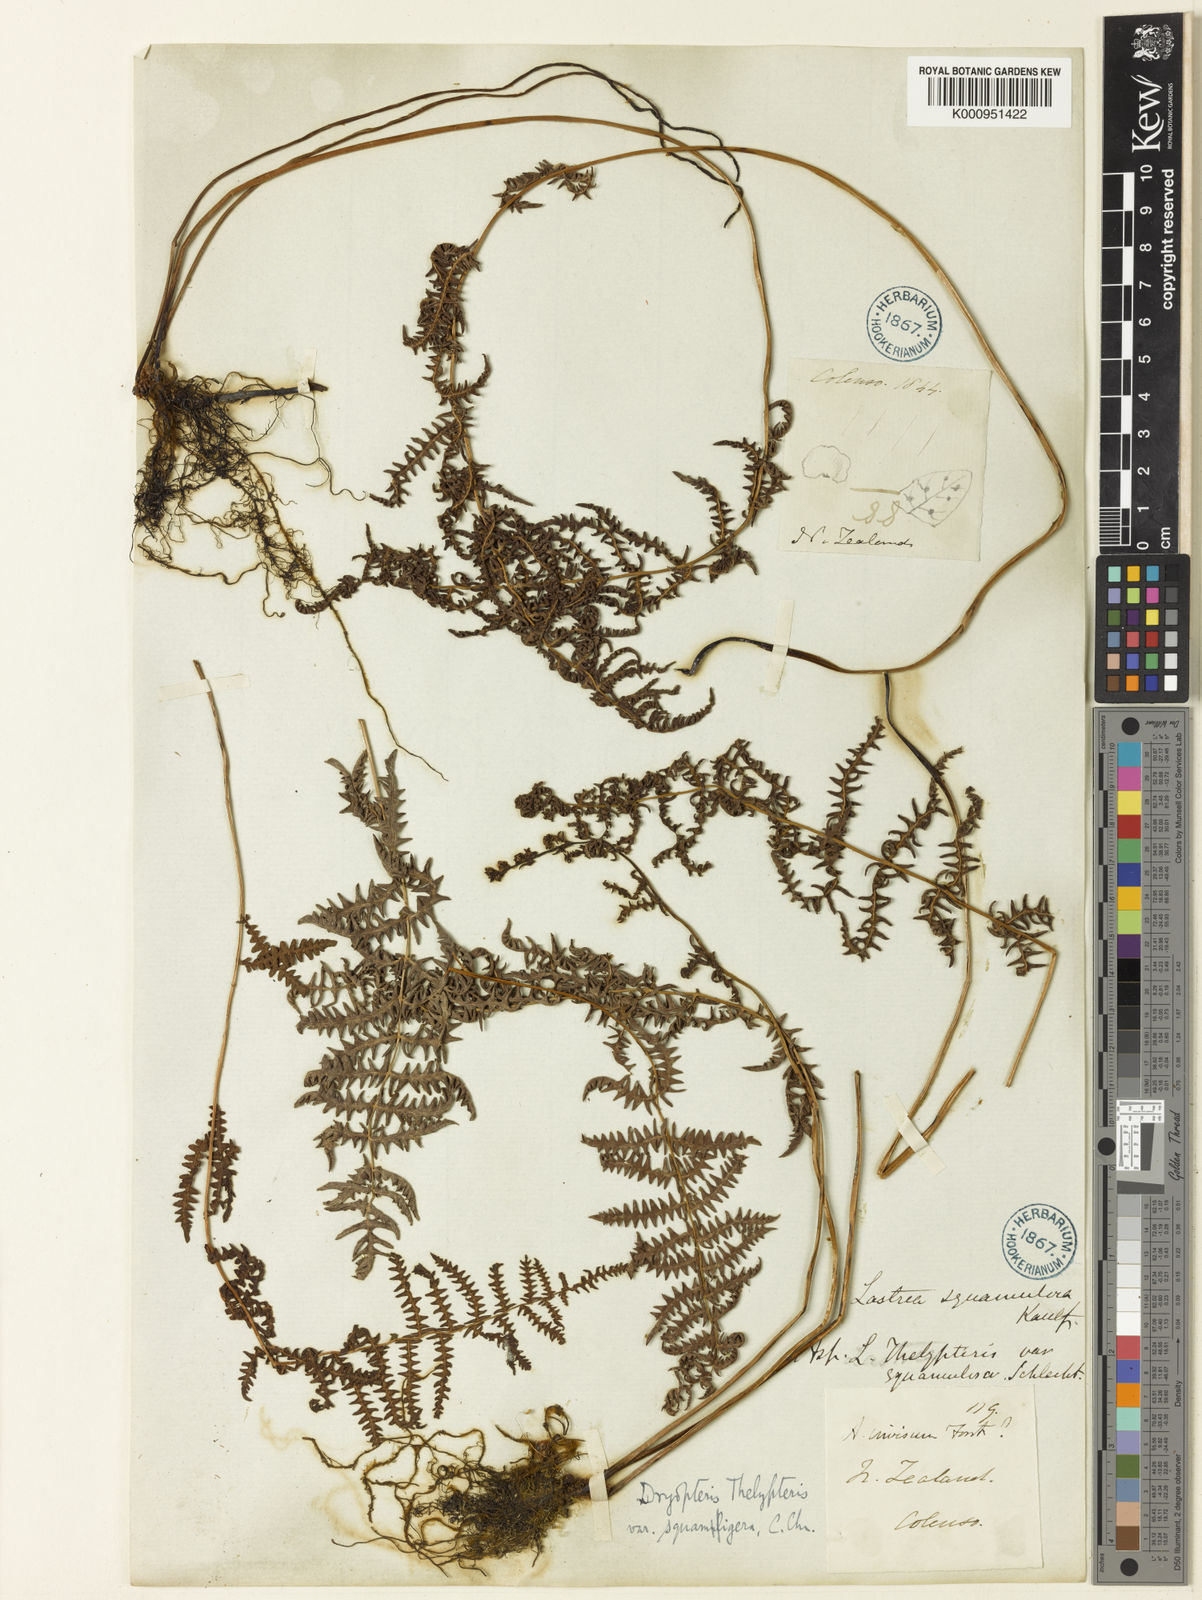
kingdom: Plantae
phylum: Tracheophyta
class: Polypodiopsida
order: Polypodiales
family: Thelypteridaceae
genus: Thelypteris
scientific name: Thelypteris confluens
